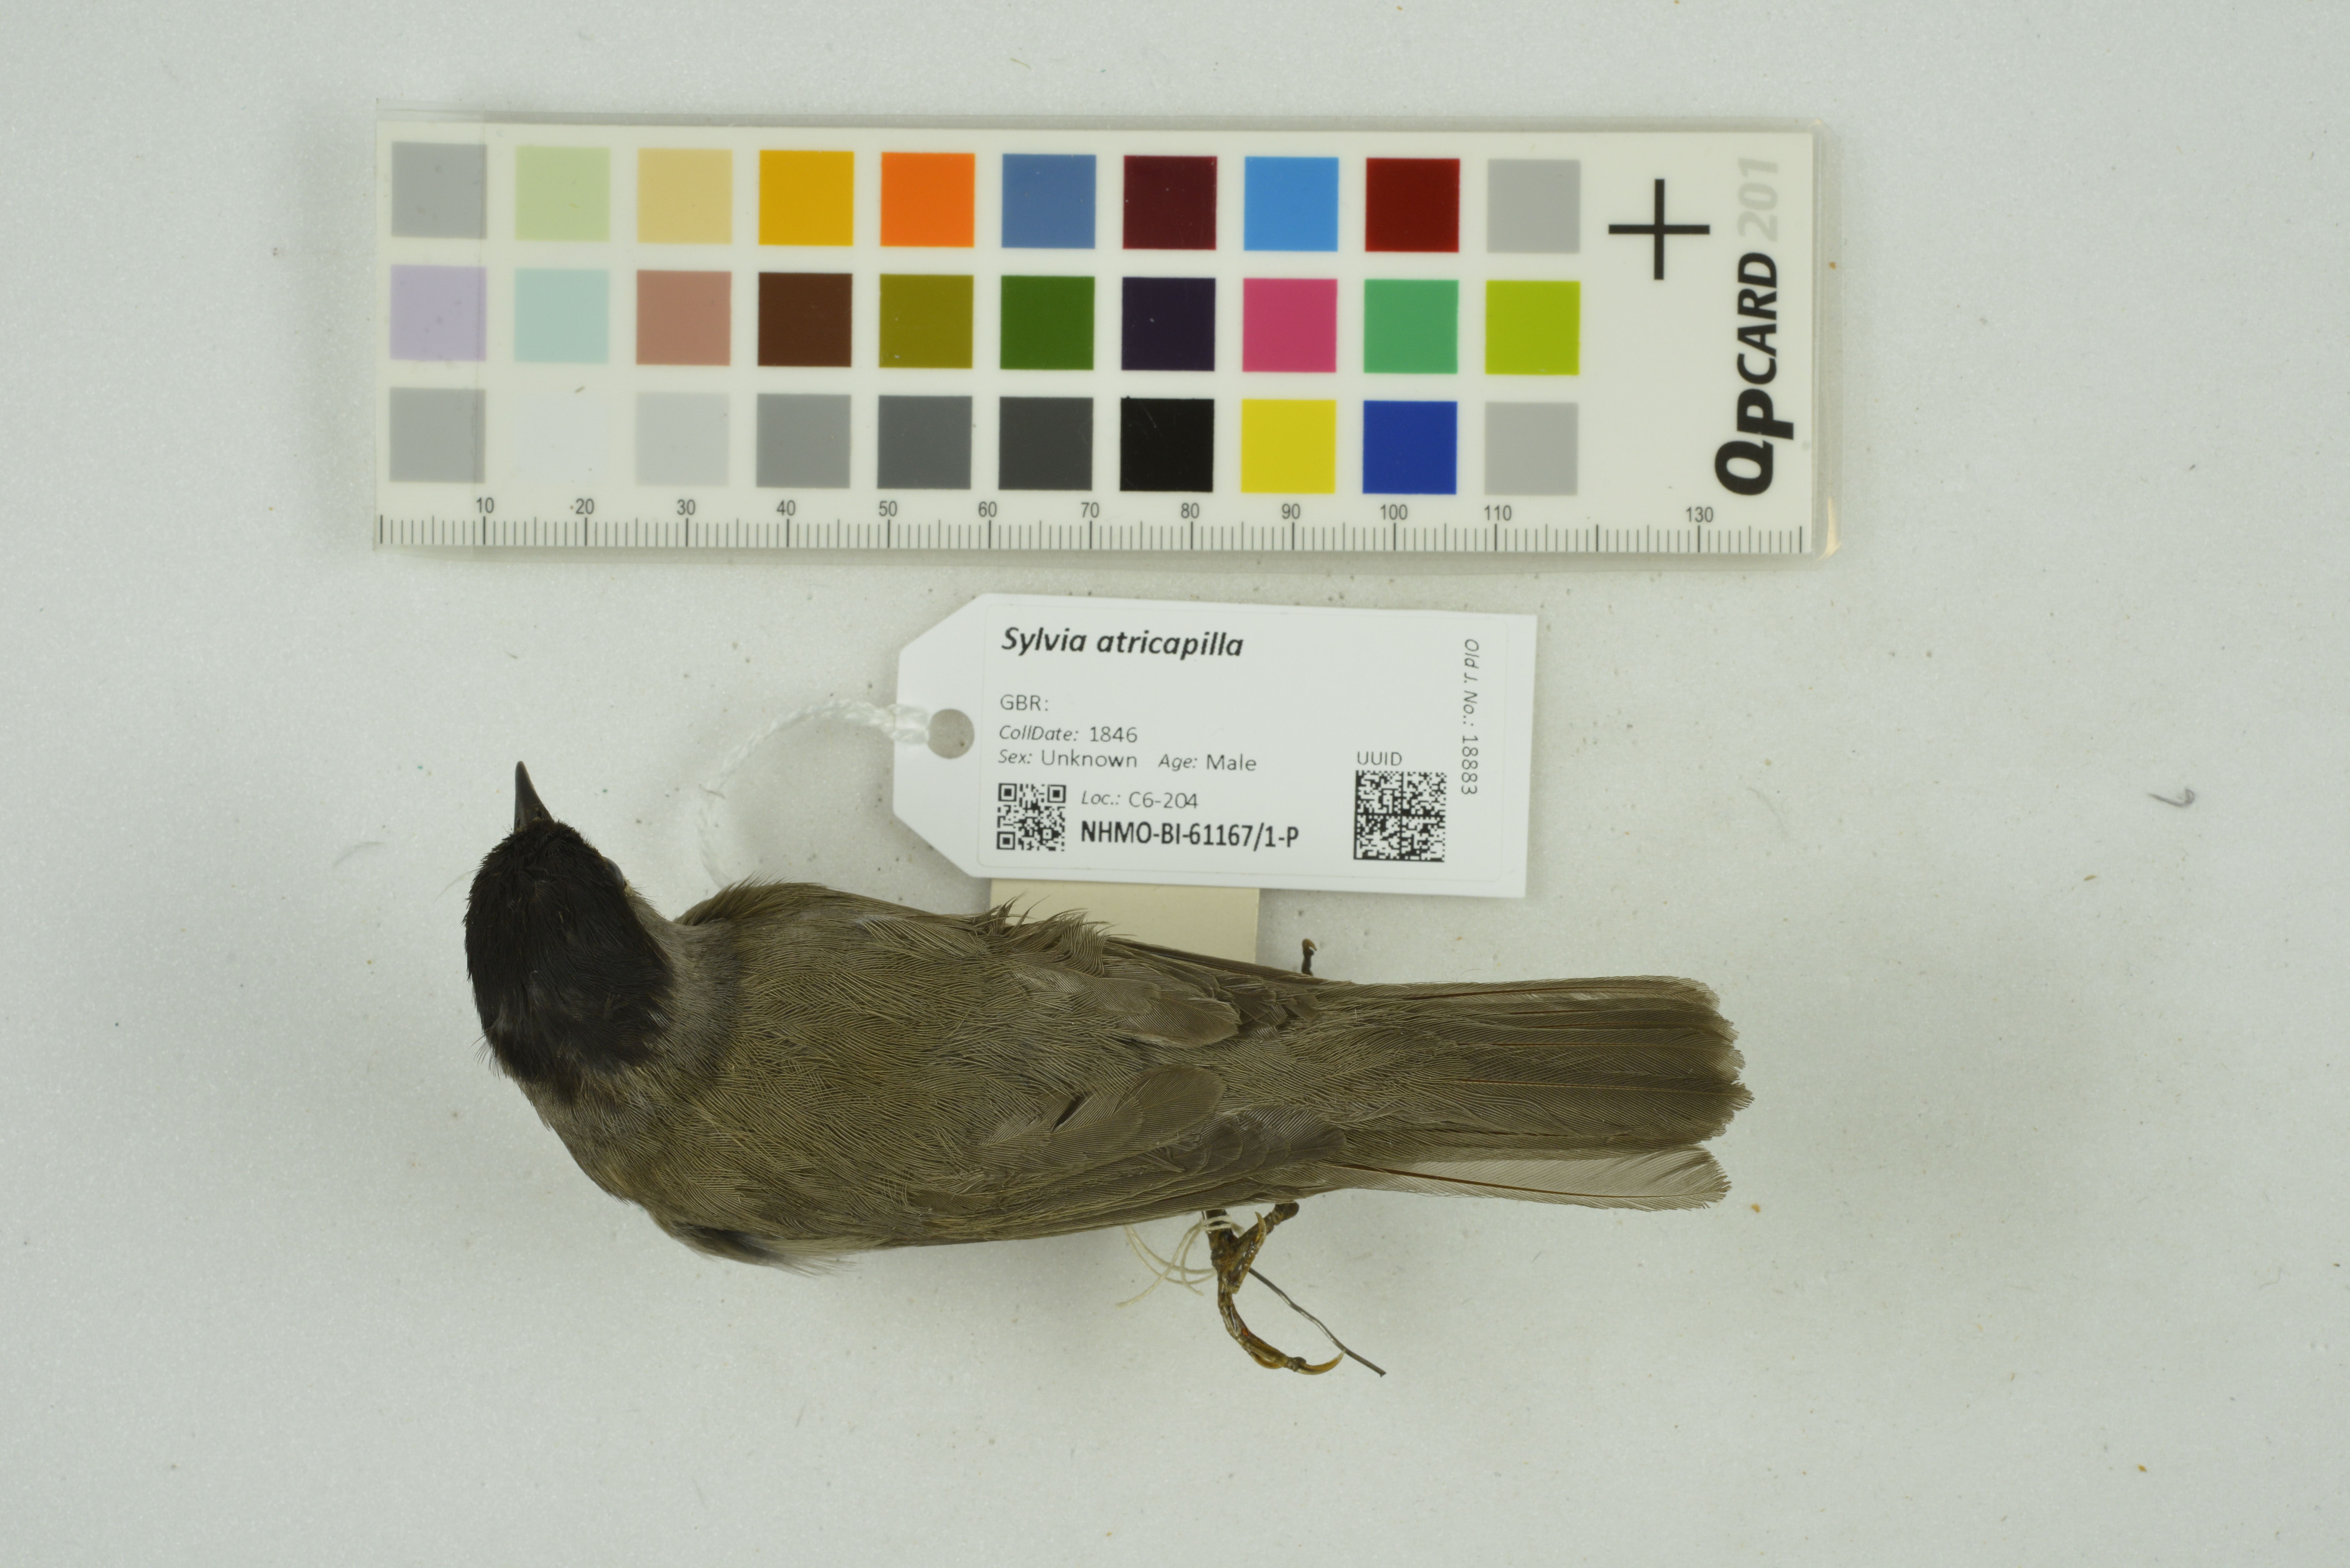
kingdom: Animalia
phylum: Chordata
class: Aves
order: Passeriformes
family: Sylviidae
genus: Sylvia
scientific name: Sylvia atricapilla
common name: Eurasian blackcap
